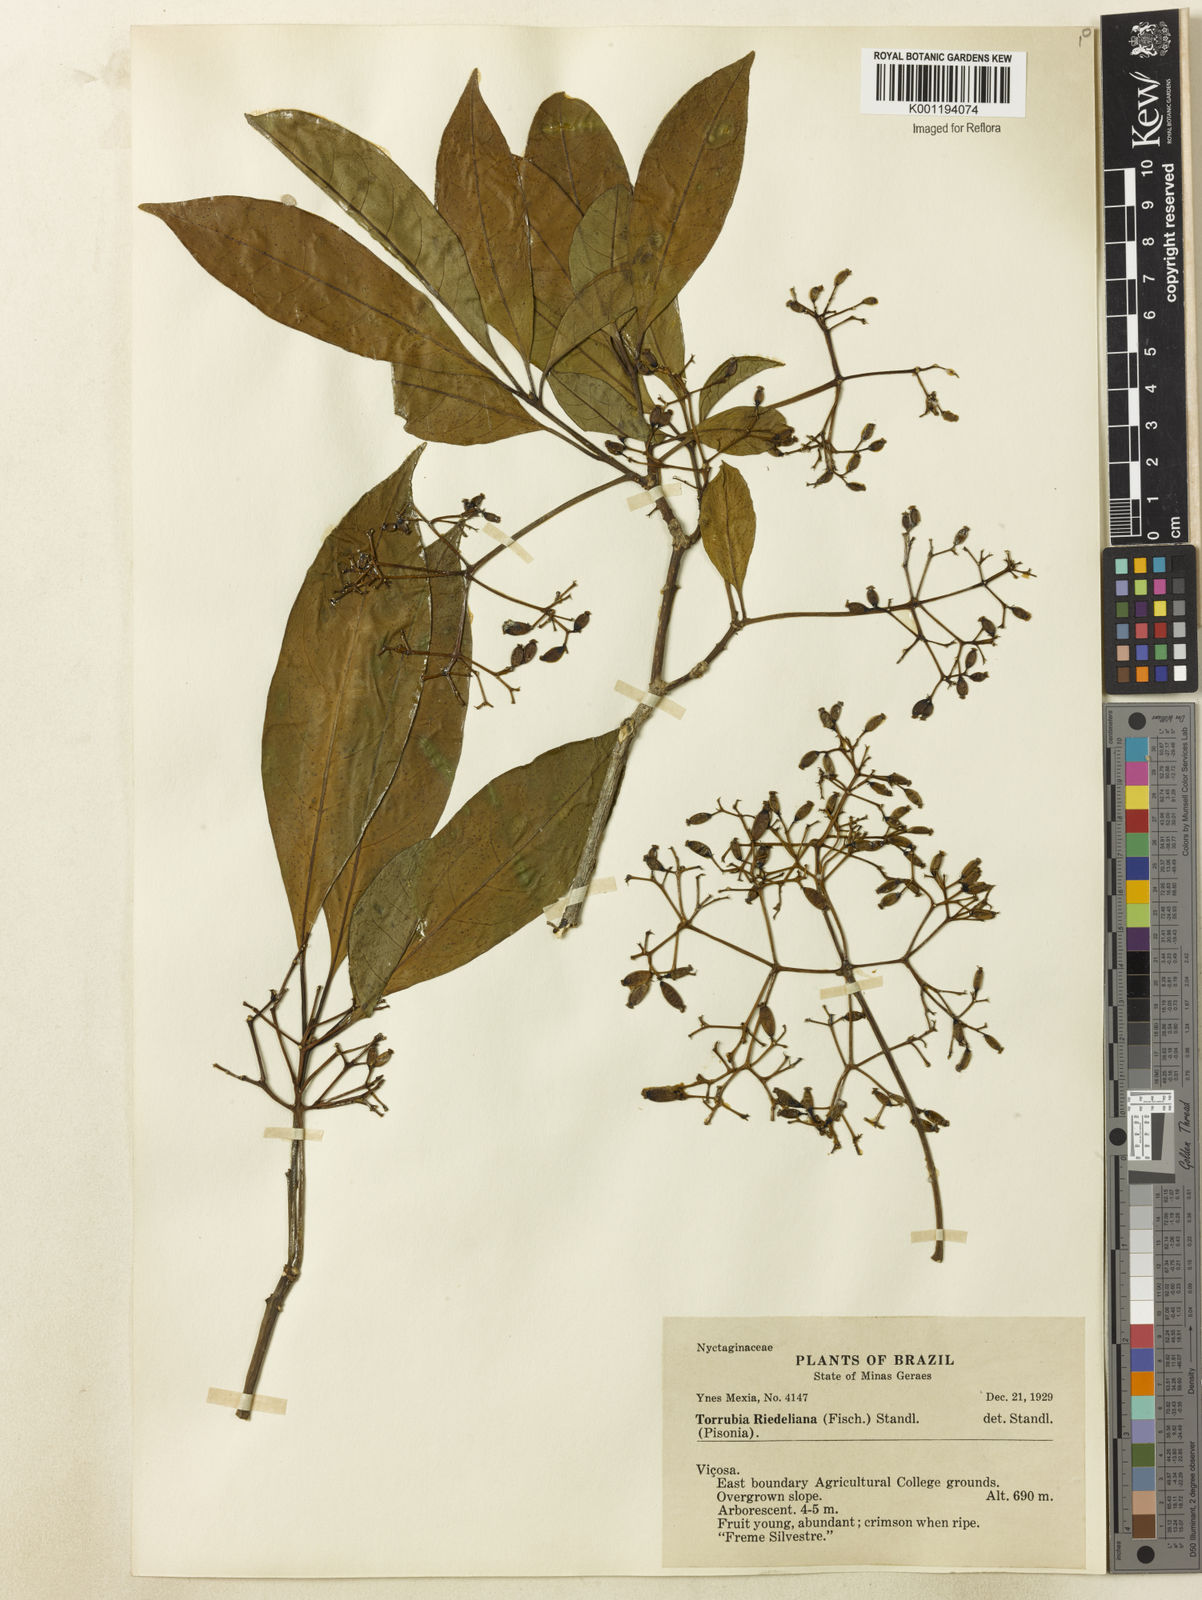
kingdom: Plantae
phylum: Tracheophyta
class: Magnoliopsida
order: Caryophyllales
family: Nyctaginaceae
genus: Guapira
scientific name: Guapira riedeliana
